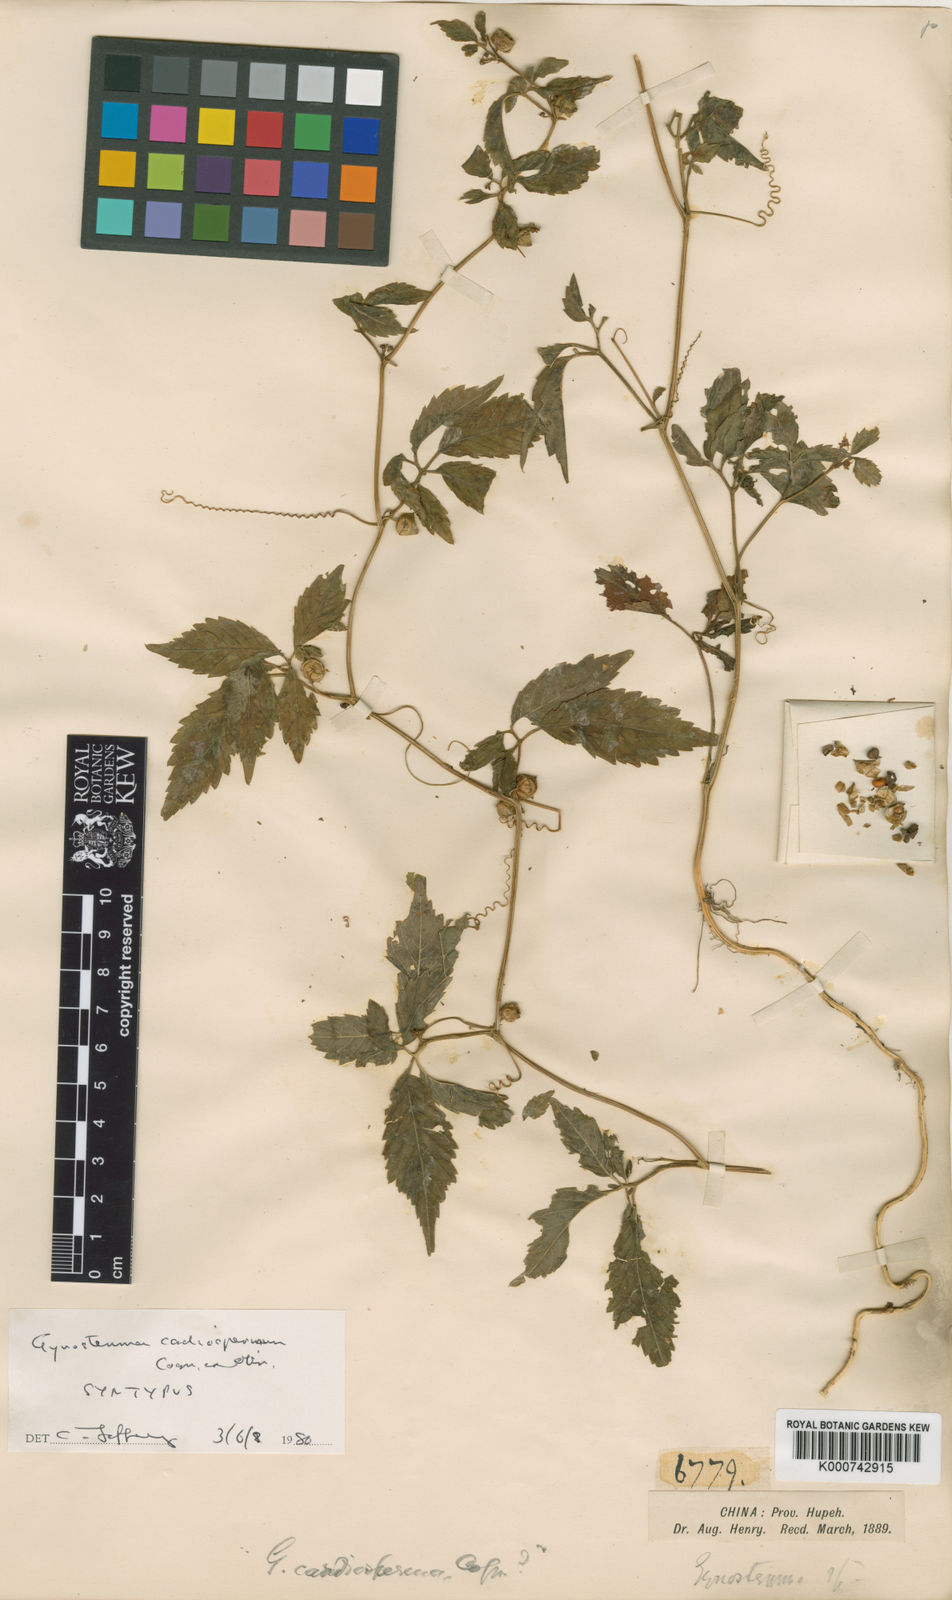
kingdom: Plantae
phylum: Tracheophyta
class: Magnoliopsida
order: Cucurbitales
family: Cucurbitaceae
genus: Gynostemma
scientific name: Gynostemma cardiospermum
